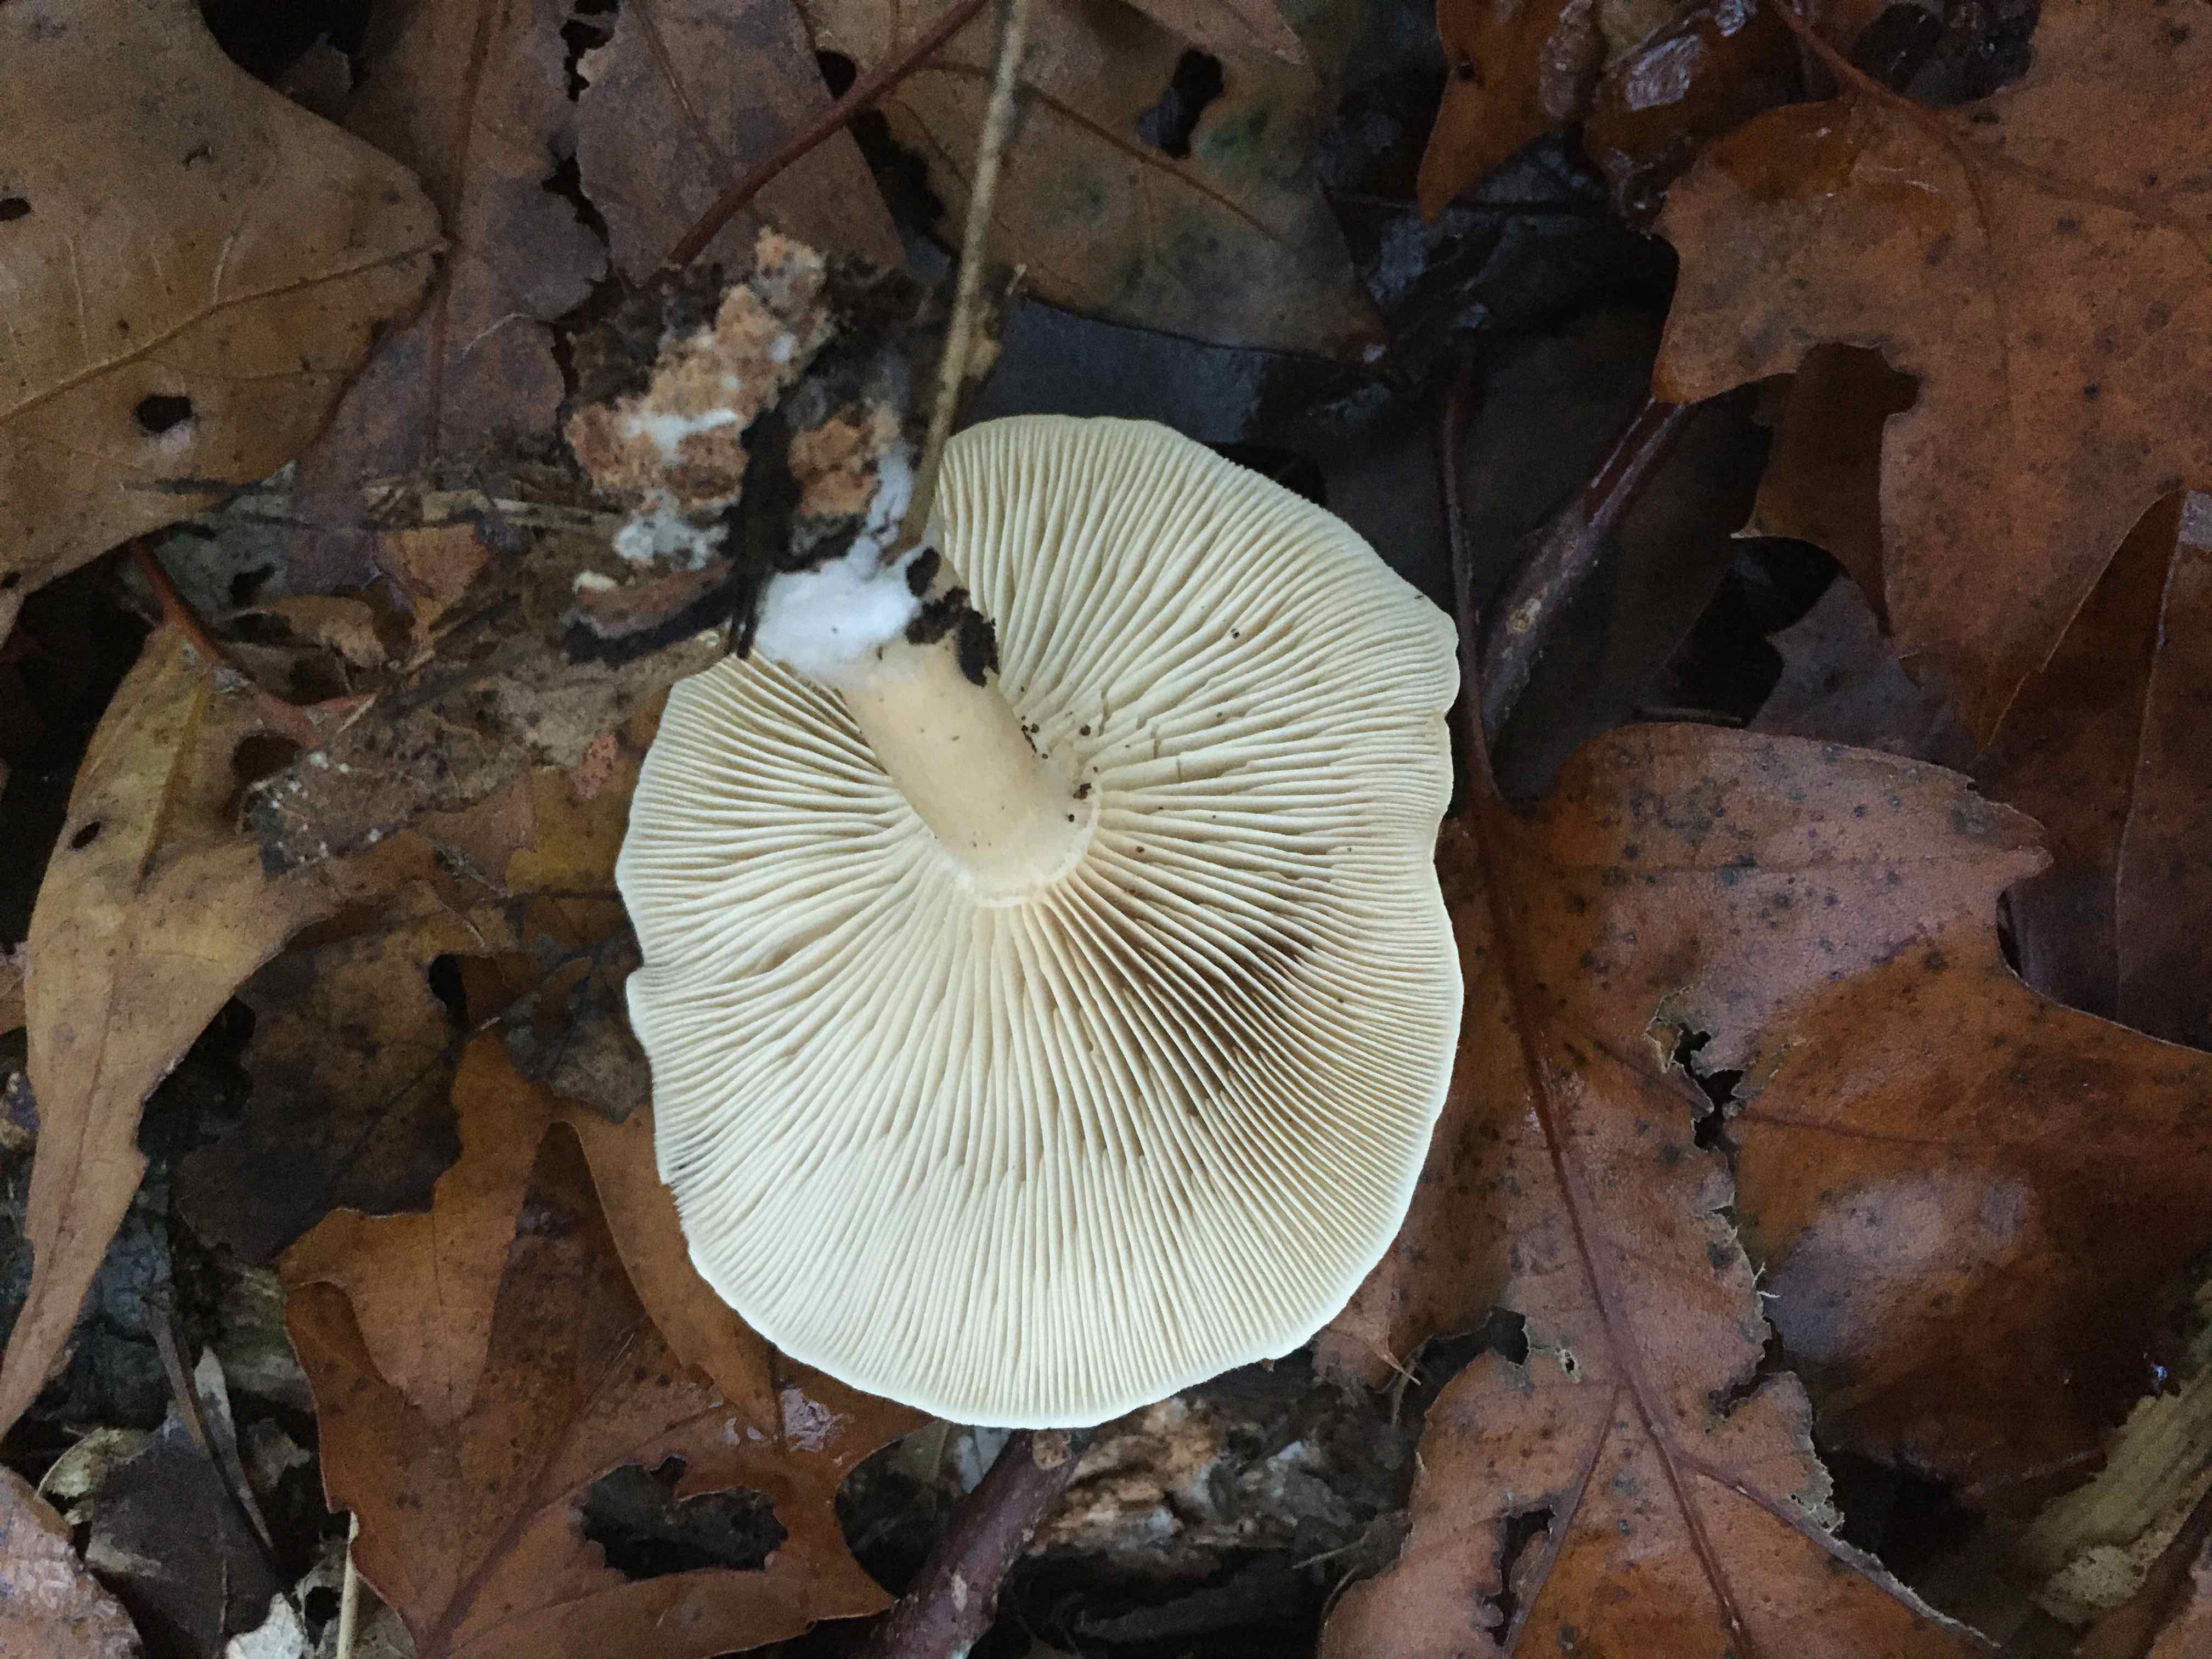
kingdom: Fungi
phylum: Basidiomycota
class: Agaricomycetes
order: Agaricales
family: Tricholomataceae
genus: Clitocybe
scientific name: Clitocybe phyllophila
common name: løv-tragthat
